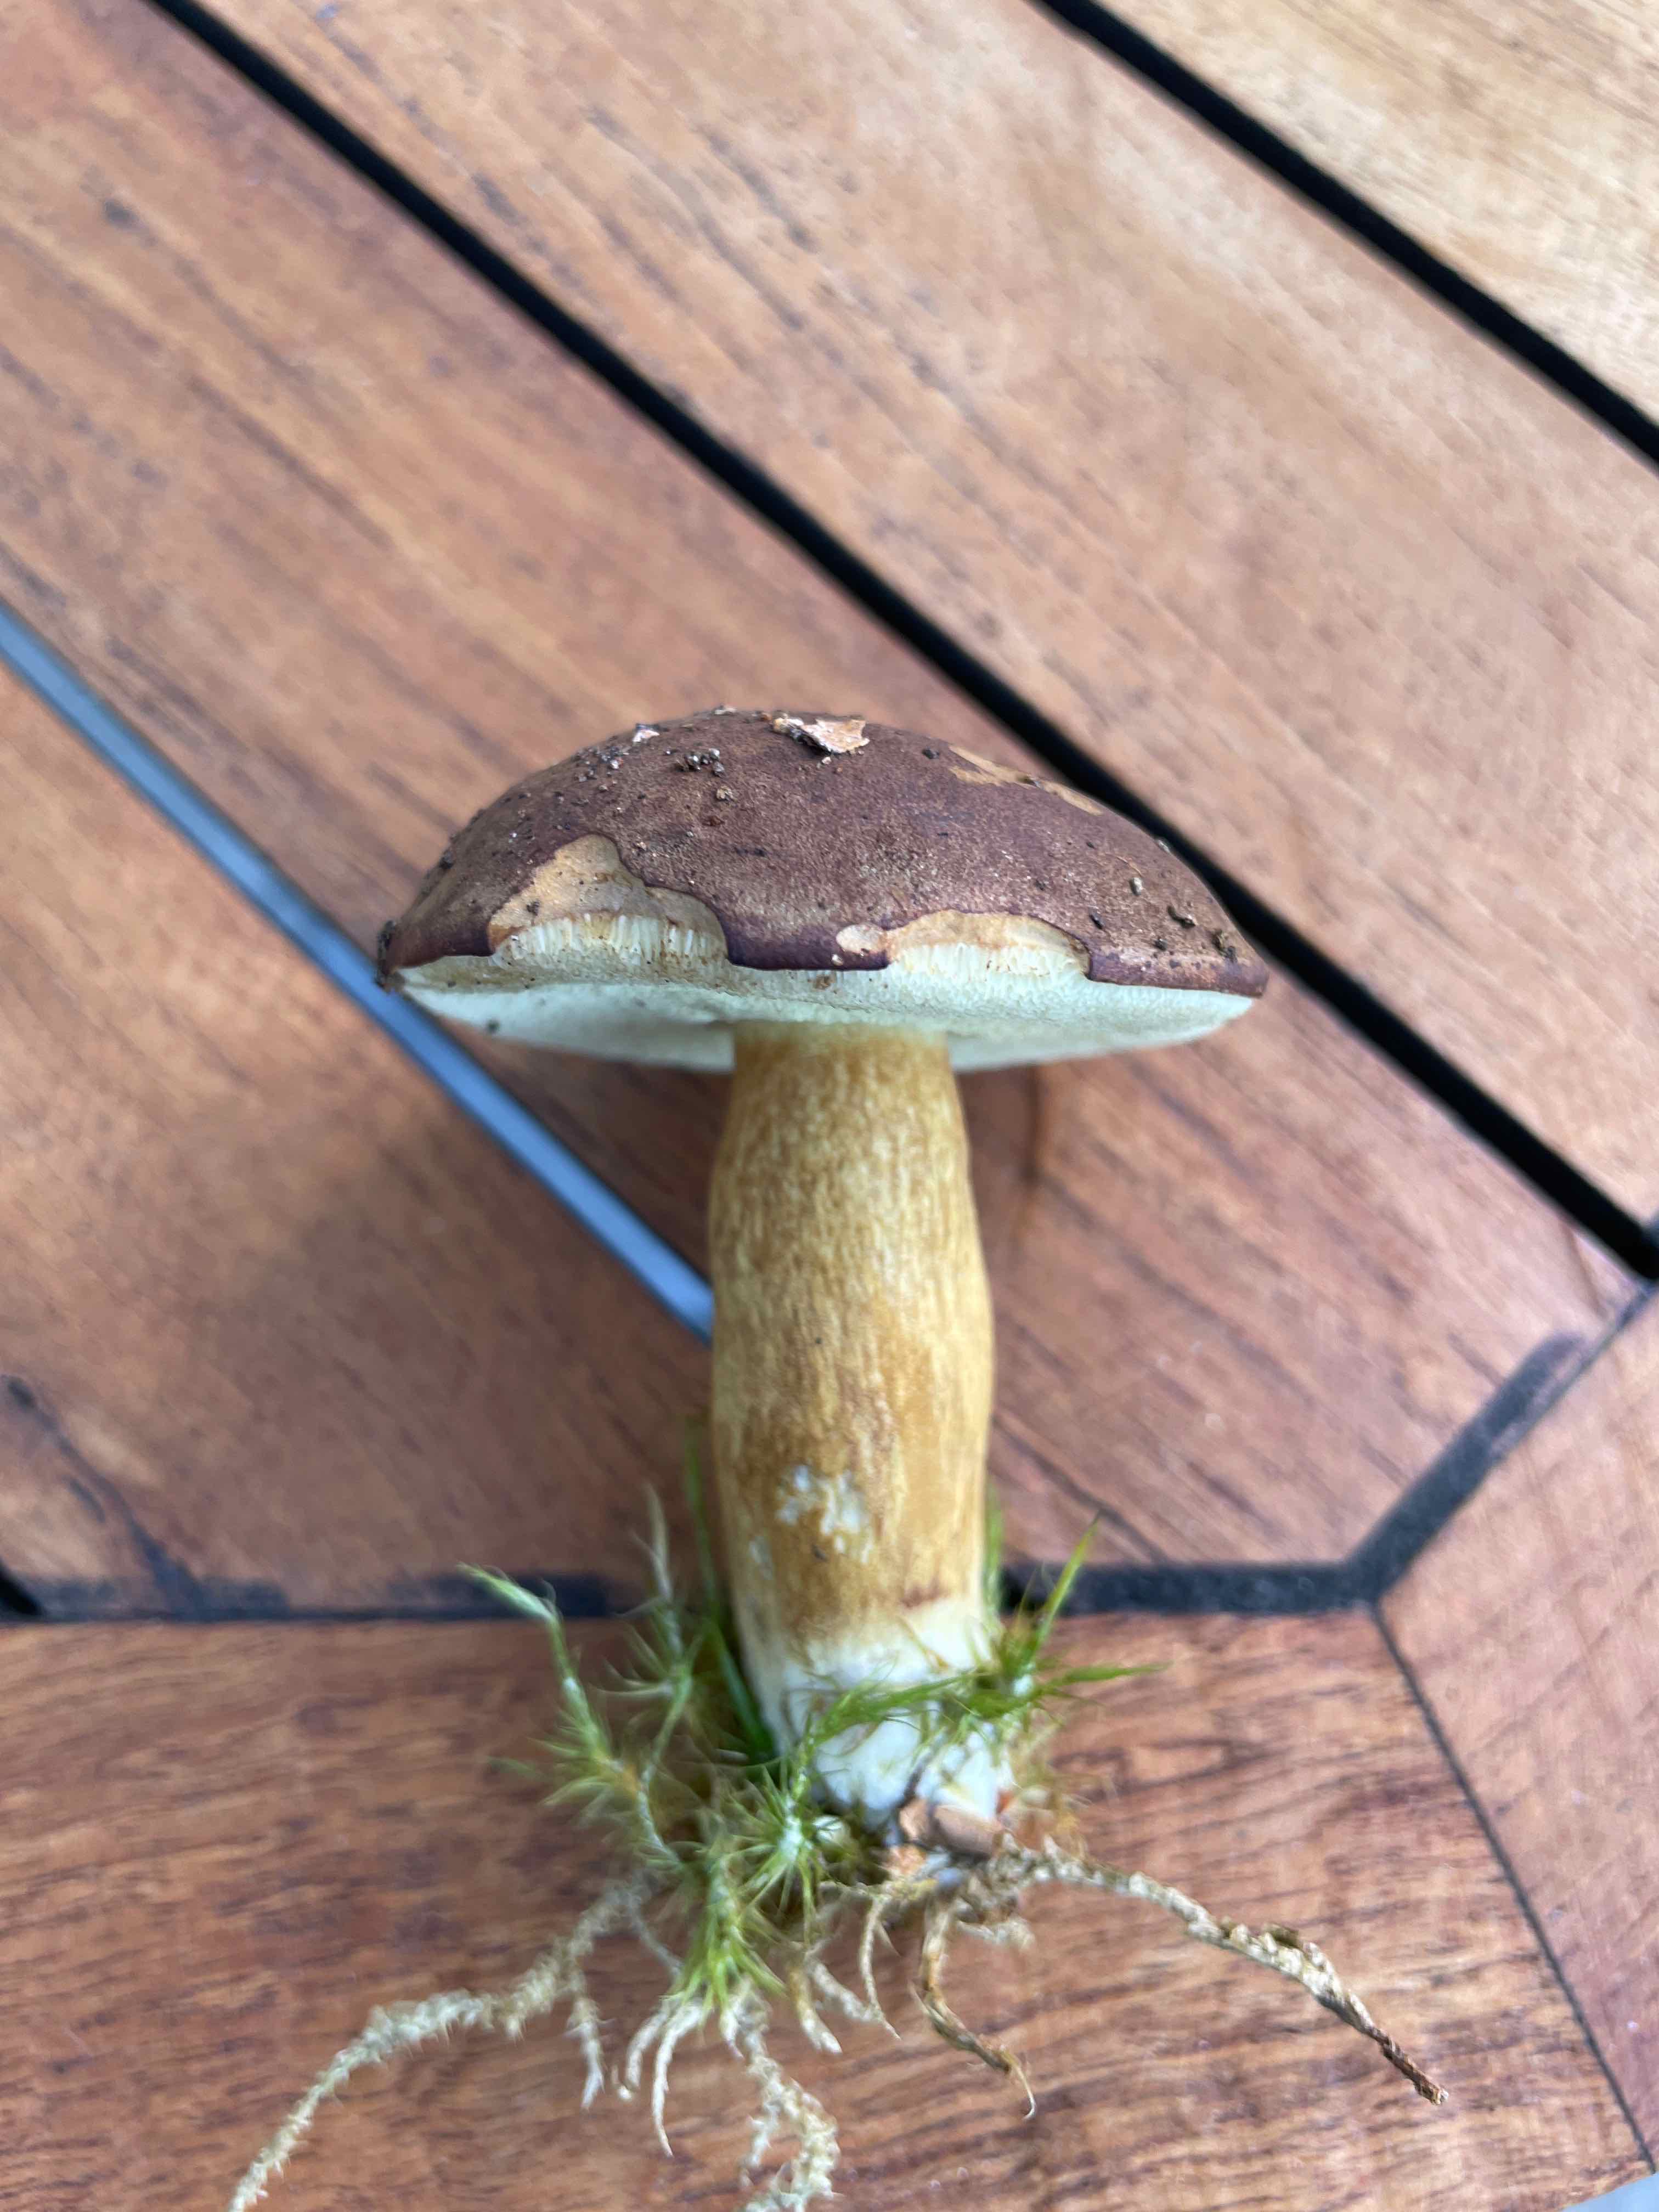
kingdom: Fungi
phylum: Basidiomycota
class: Agaricomycetes
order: Boletales
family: Boletaceae
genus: Imleria
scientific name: Imleria badia
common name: brunstokket rørhat
